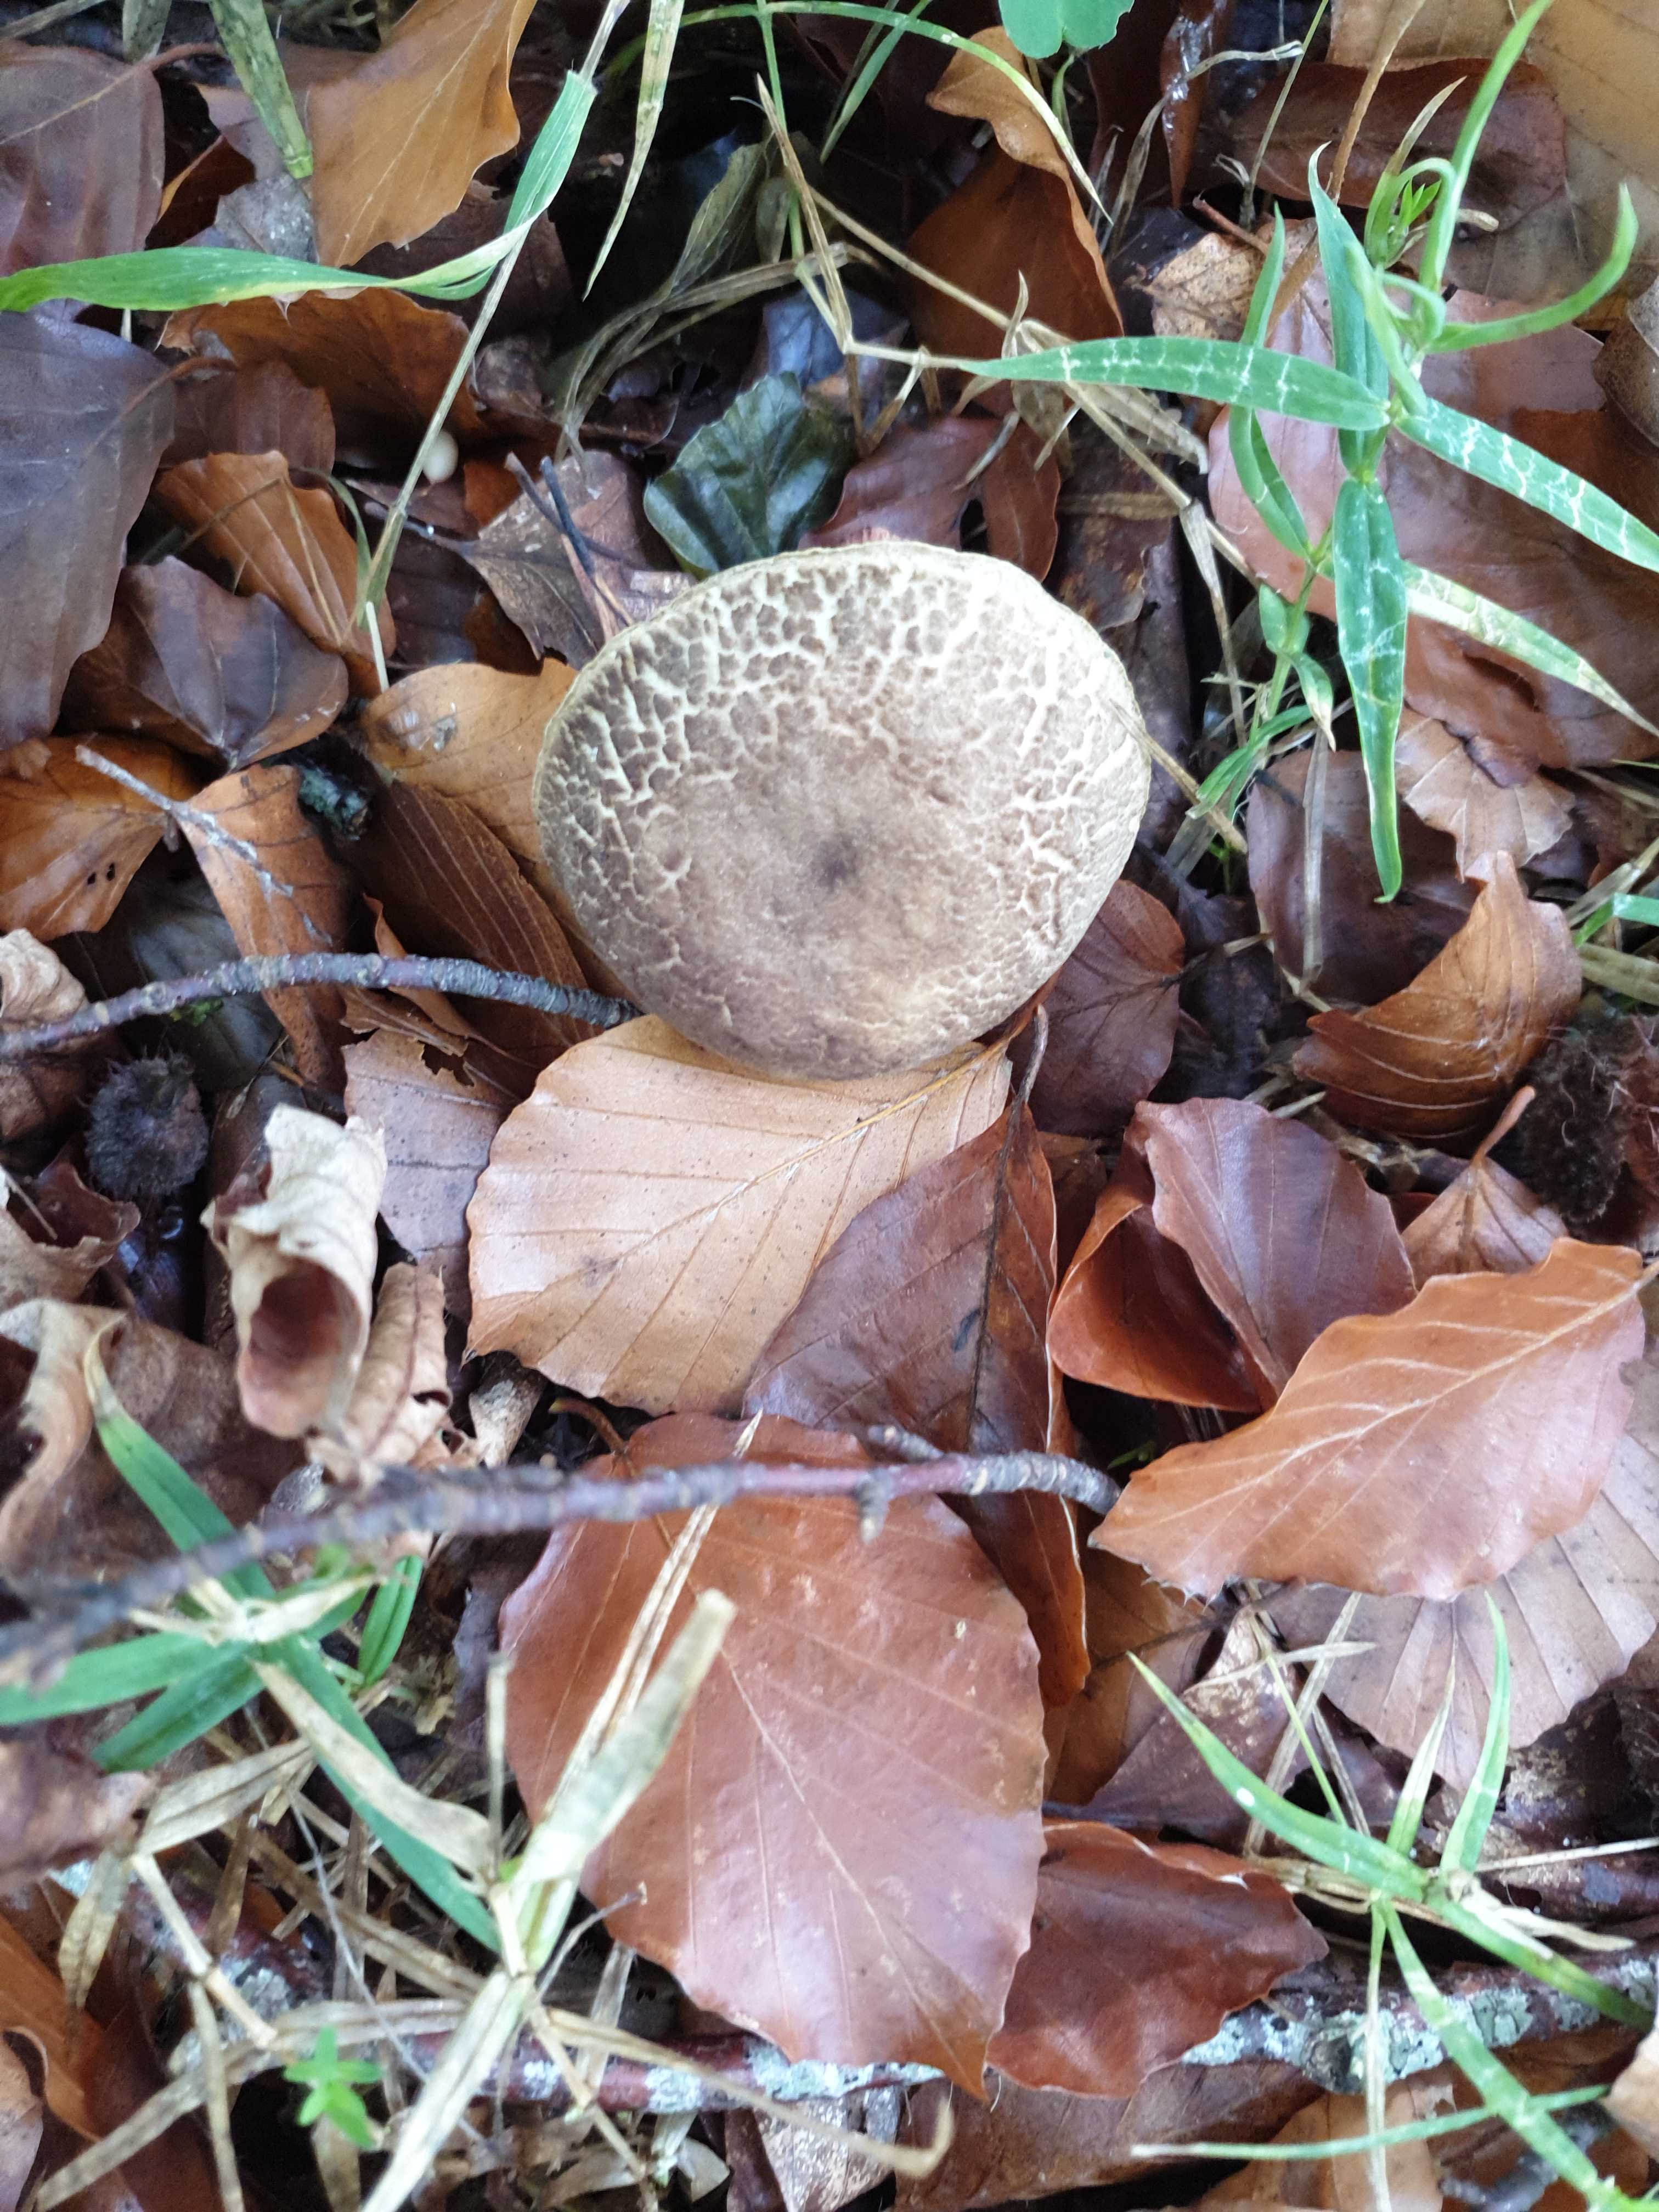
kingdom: Fungi
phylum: Basidiomycota
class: Agaricomycetes
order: Boletales
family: Boletaceae
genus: Xerocomellus
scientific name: Xerocomellus
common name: dværgrørhat
